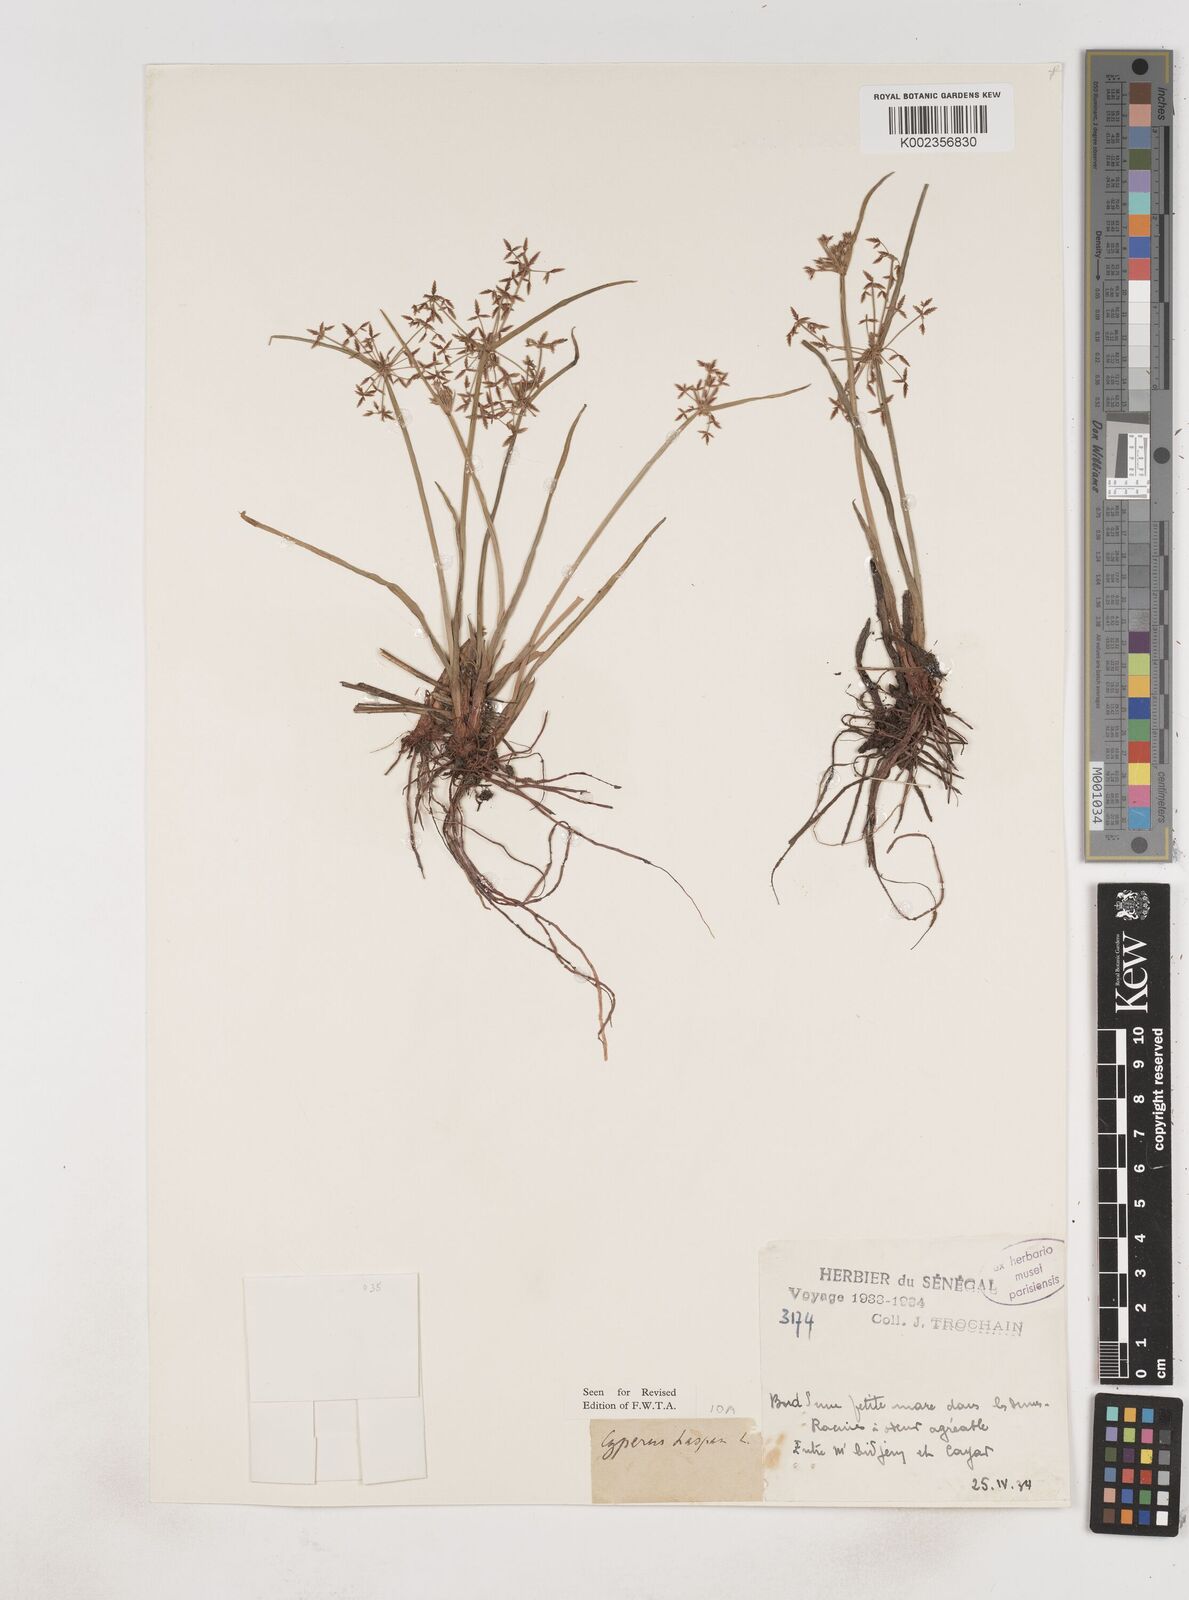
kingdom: Plantae
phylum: Tracheophyta
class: Liliopsida
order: Poales
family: Cyperaceae
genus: Cyperus
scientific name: Cyperus haspan
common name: Haspan flatsedge
